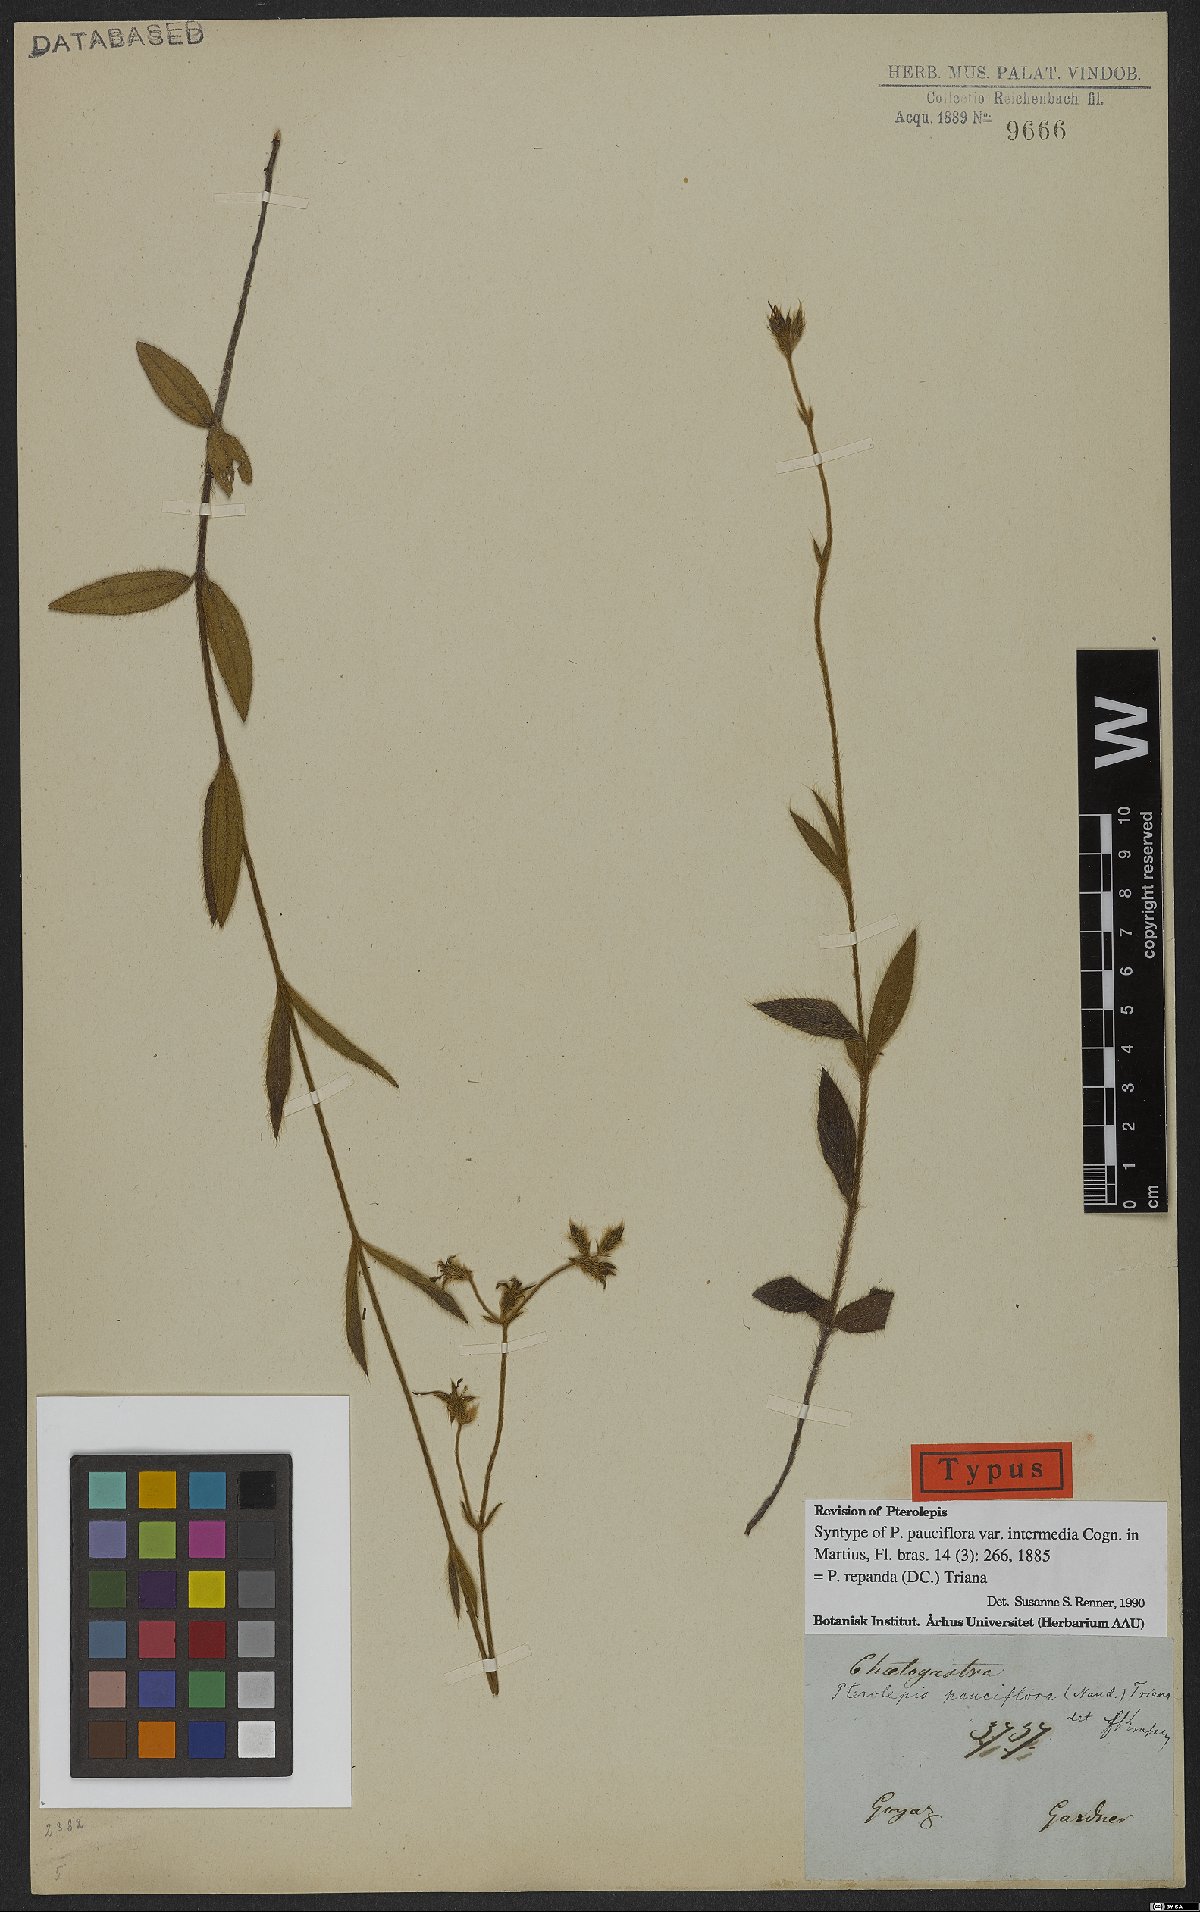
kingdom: Plantae
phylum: Tracheophyta
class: Magnoliopsida
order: Myrtales
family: Melastomataceae
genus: Pterolepis
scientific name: Pterolepis repanda
